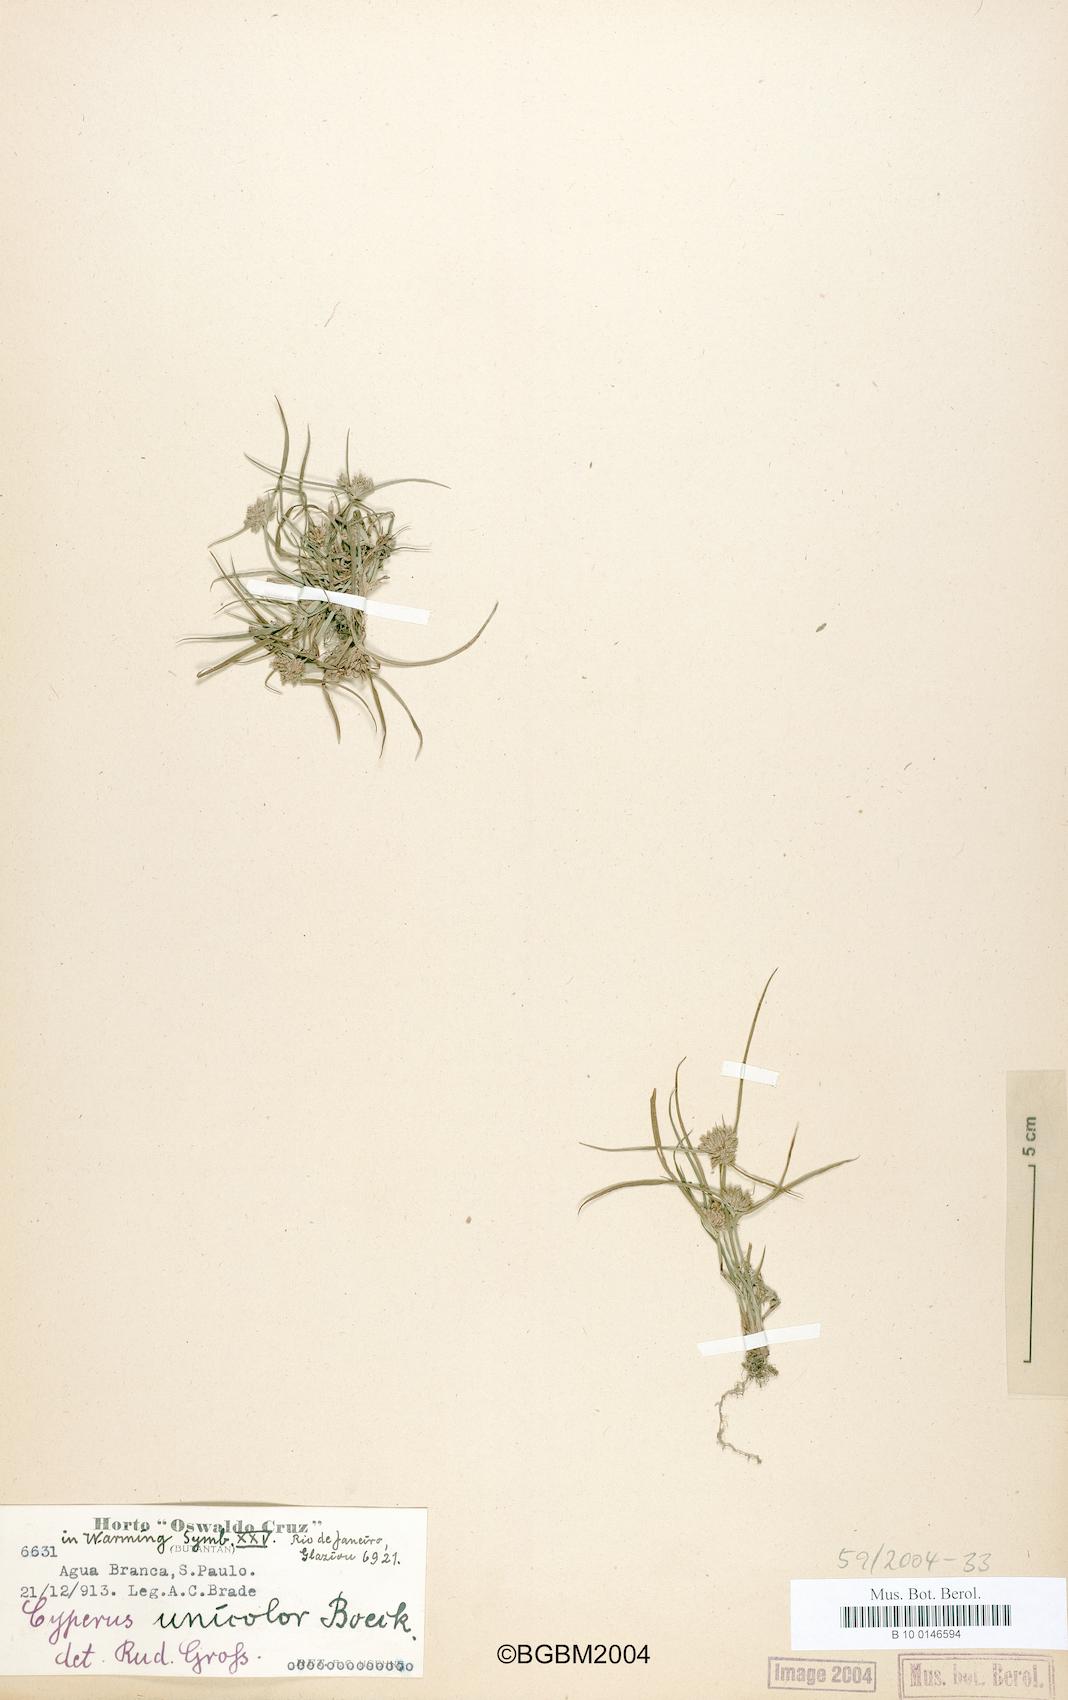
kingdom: Plantae
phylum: Tracheophyta
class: Liliopsida
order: Poales
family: Cyperaceae
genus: Cyperus
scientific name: Cyperus unicolor
